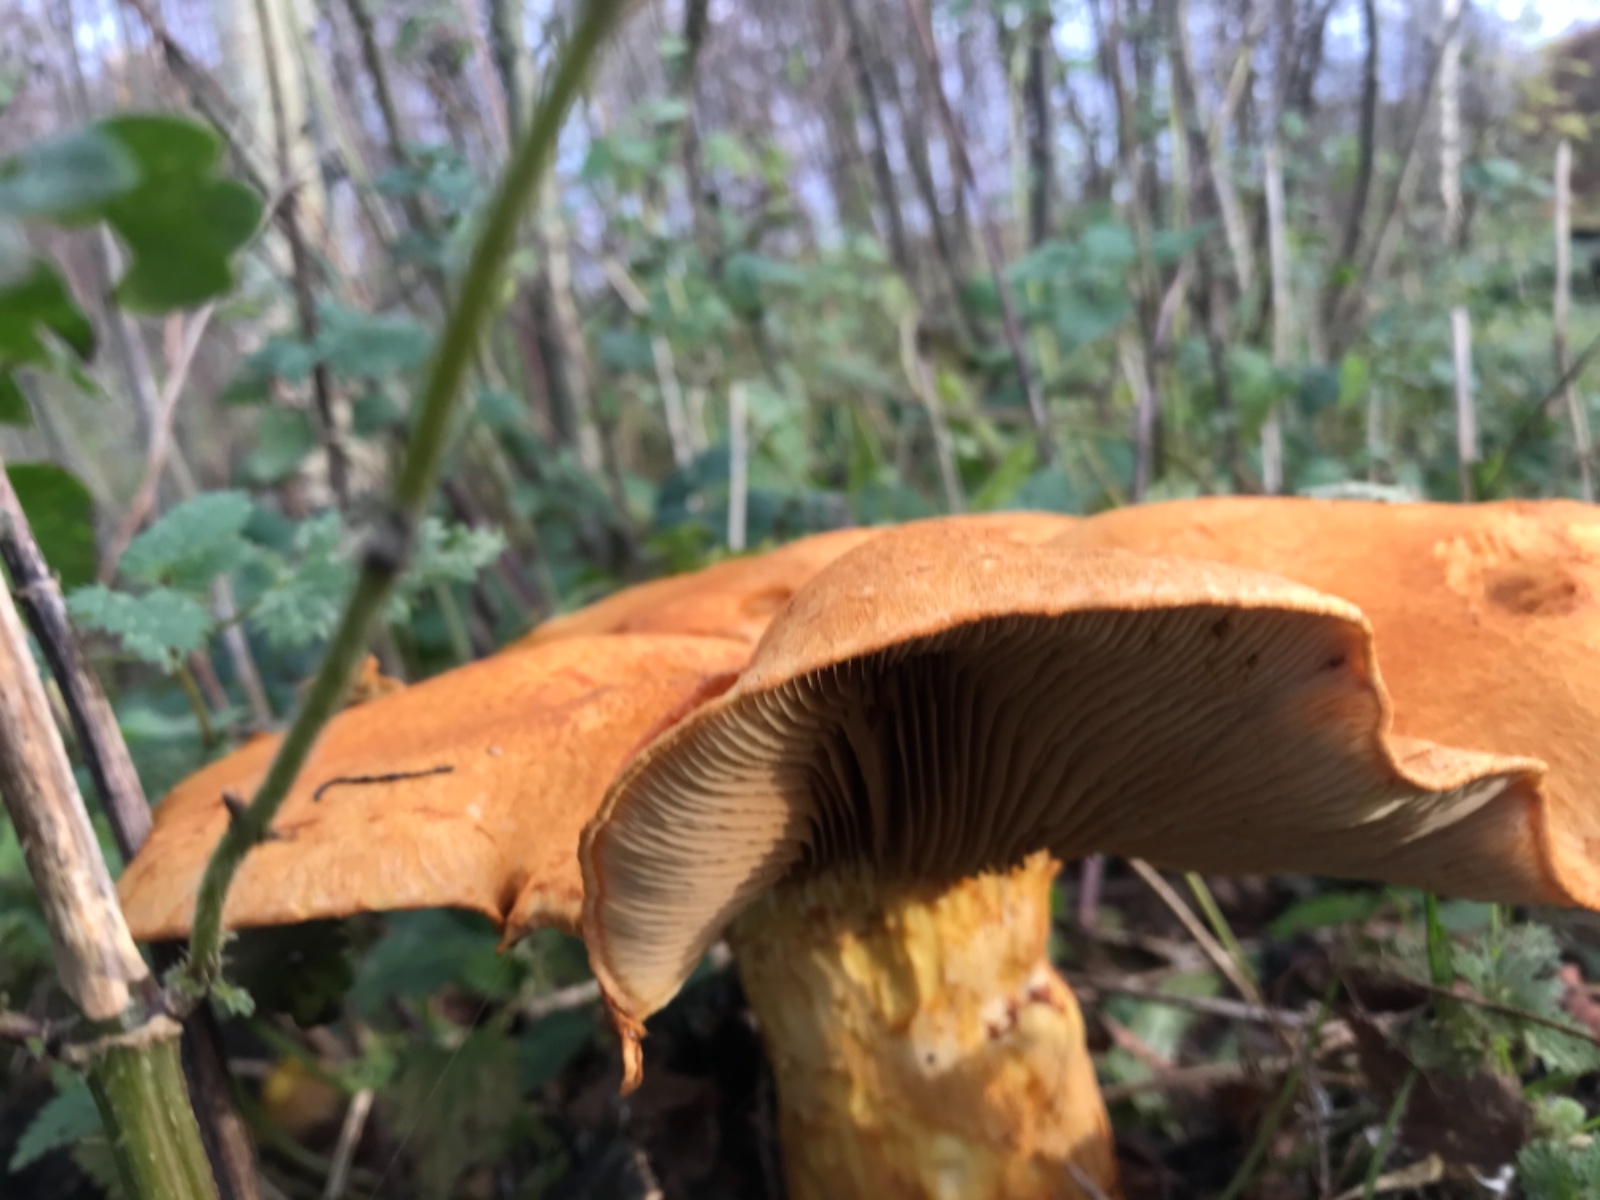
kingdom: Fungi
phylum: Basidiomycota
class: Agaricomycetes
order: Agaricales
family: Hymenogastraceae
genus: Gymnopilus
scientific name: Gymnopilus spectabilis
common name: fibret flammehat
